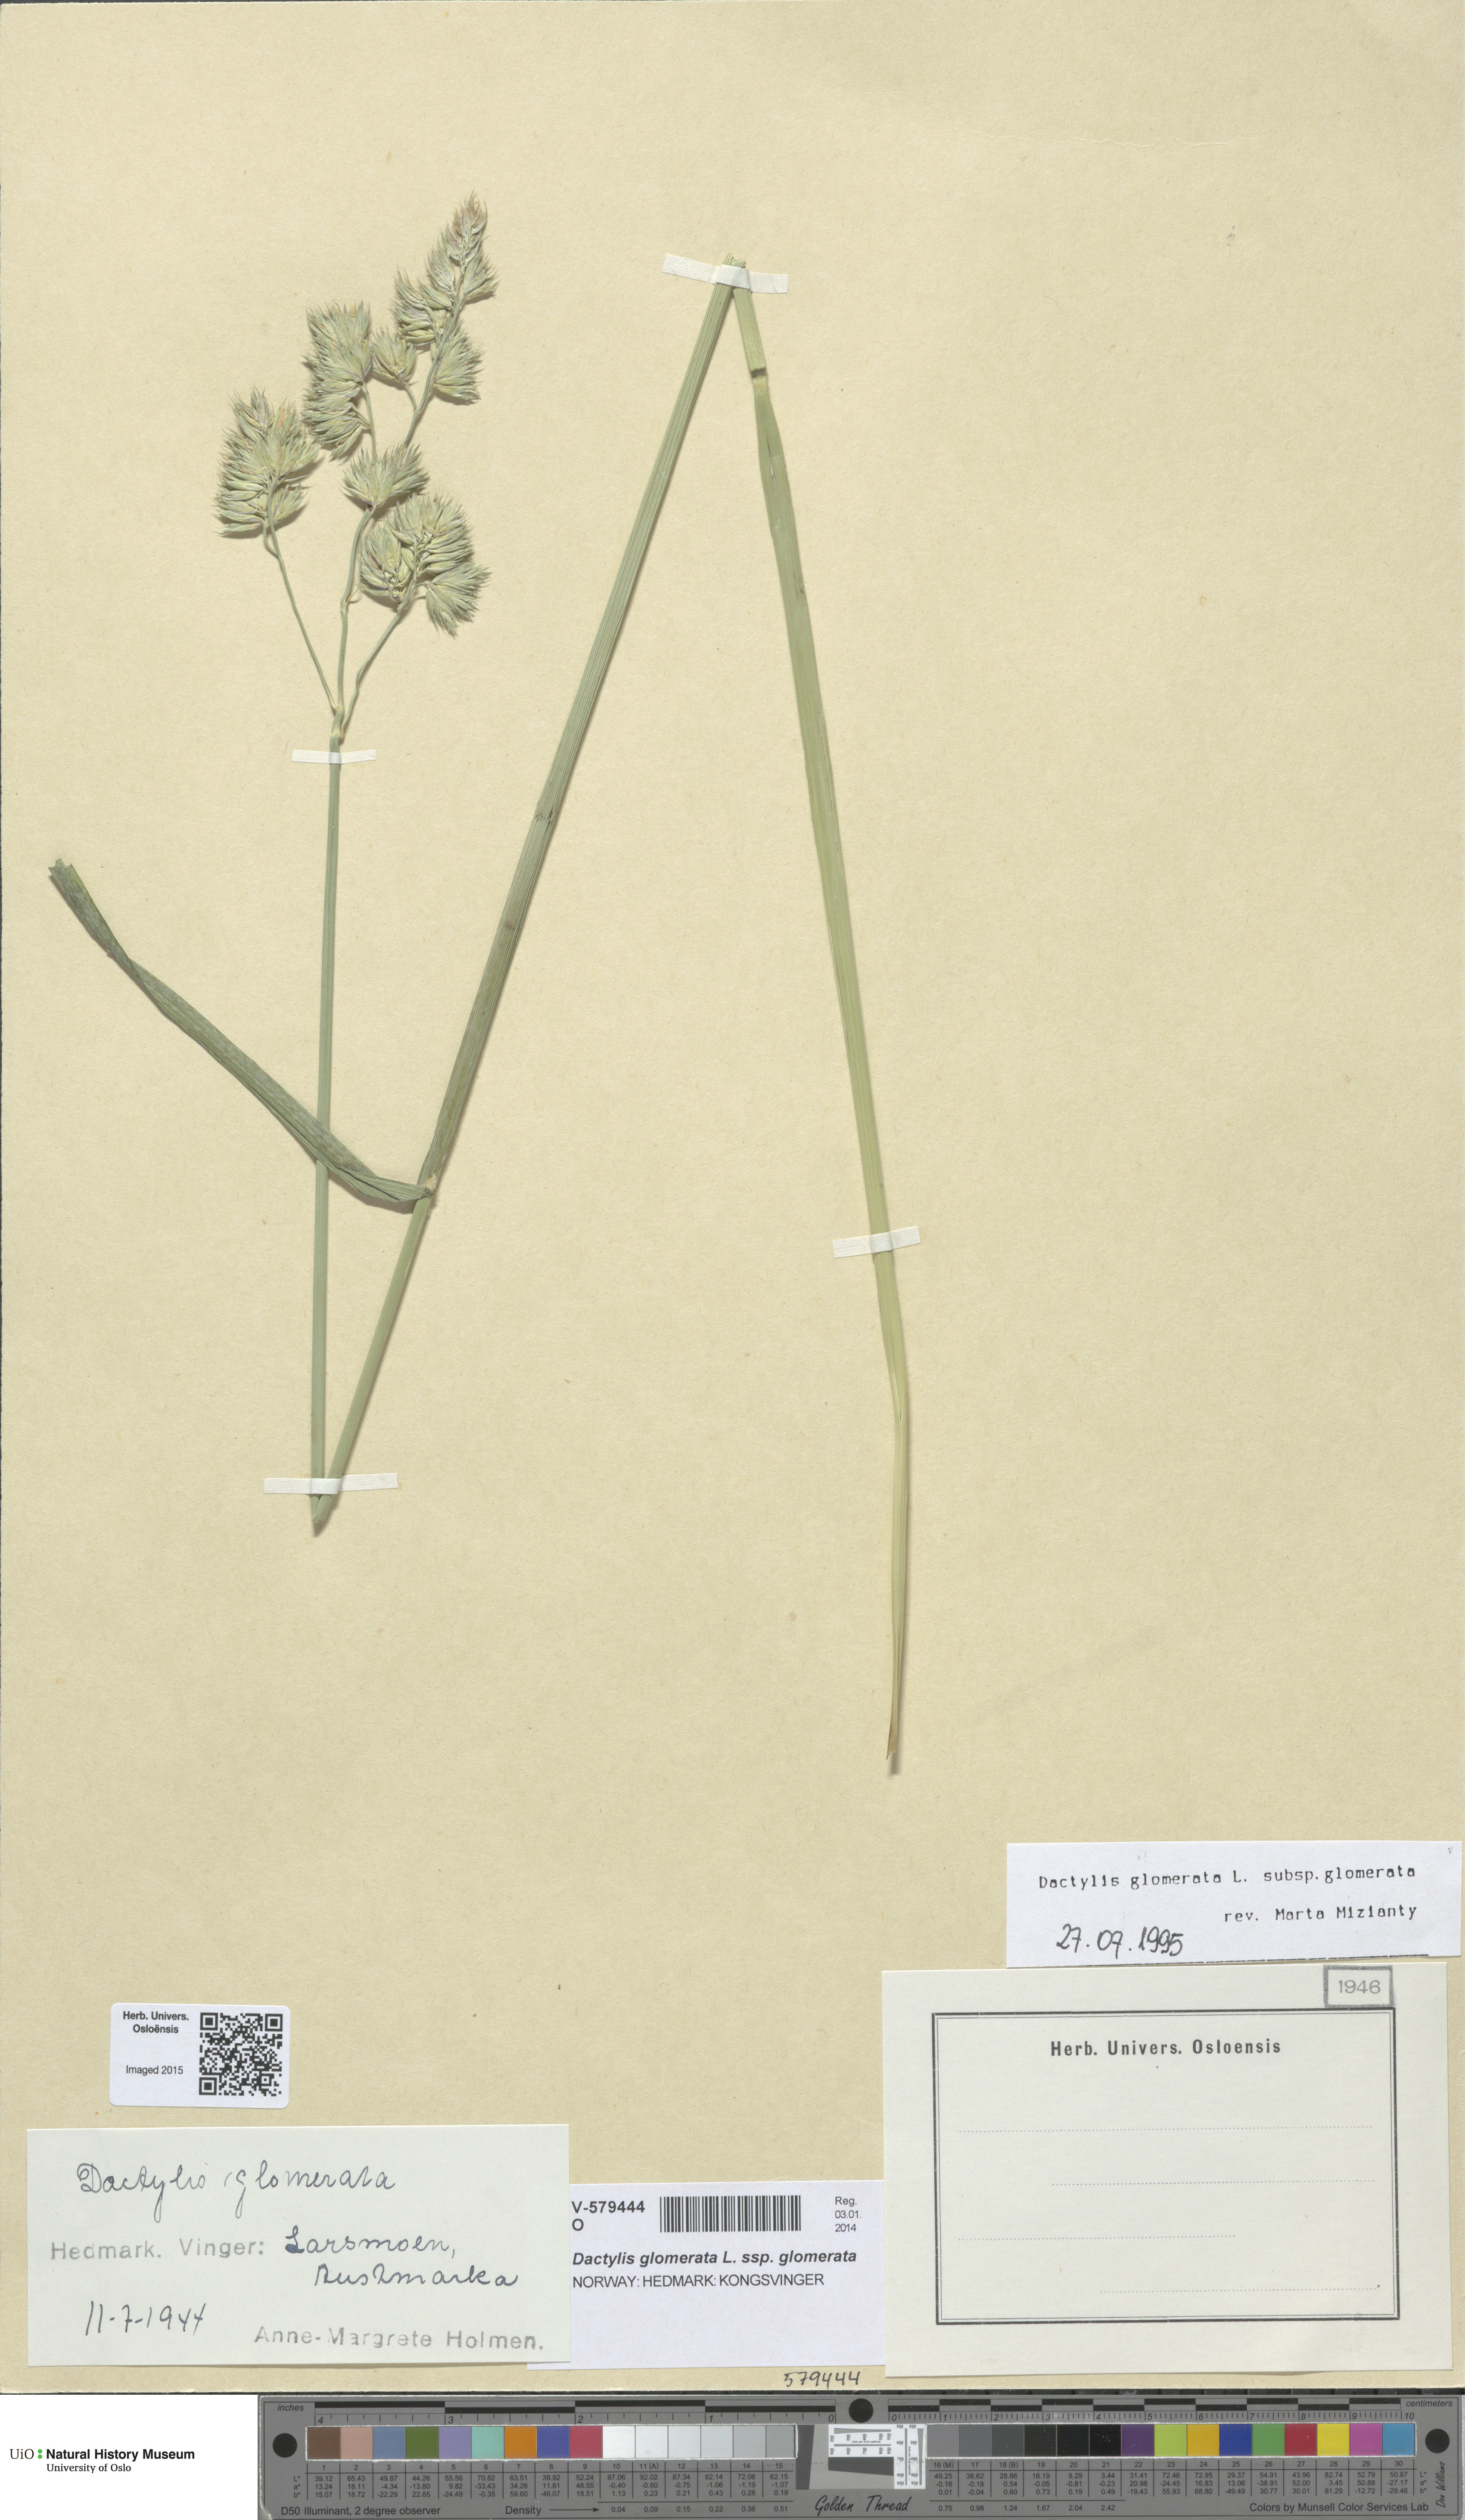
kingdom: Plantae
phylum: Tracheophyta
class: Liliopsida
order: Poales
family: Poaceae
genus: Dactylis
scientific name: Dactylis glomerata
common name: Orchardgrass
